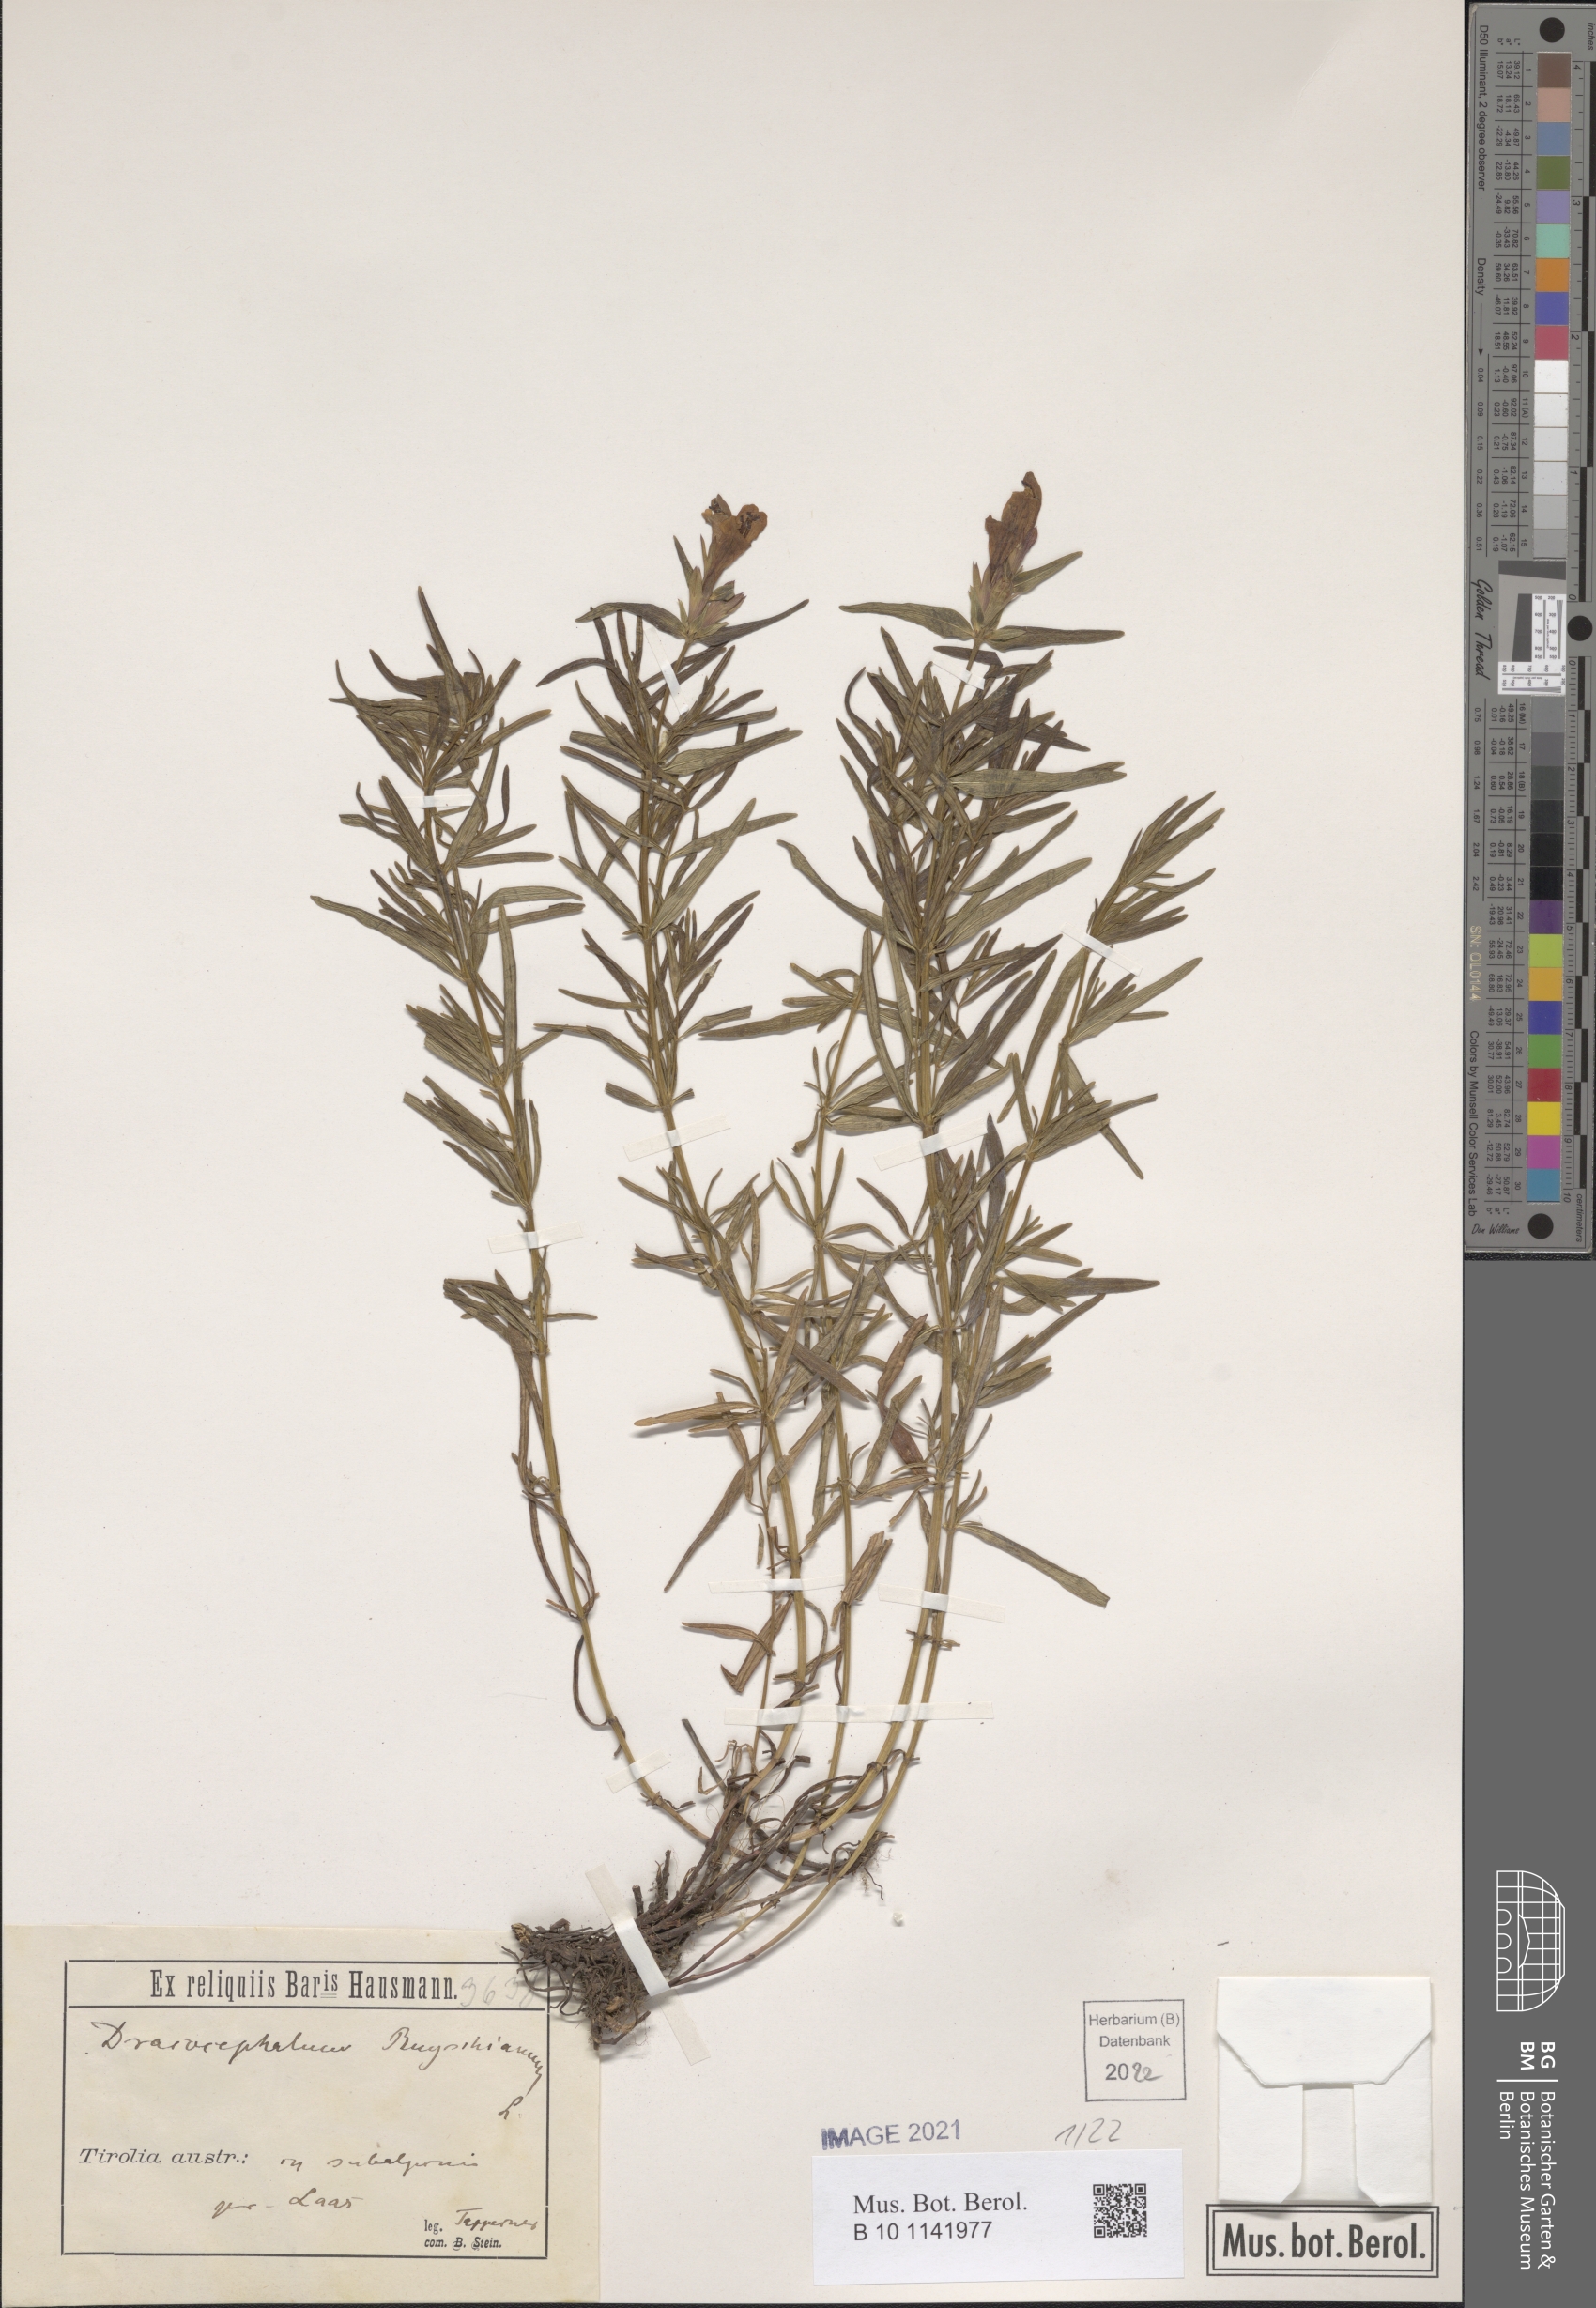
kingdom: Plantae
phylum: Tracheophyta
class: Magnoliopsida
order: Lamiales
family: Lamiaceae
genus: Dracocephalum
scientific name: Dracocephalum ruyschiana
